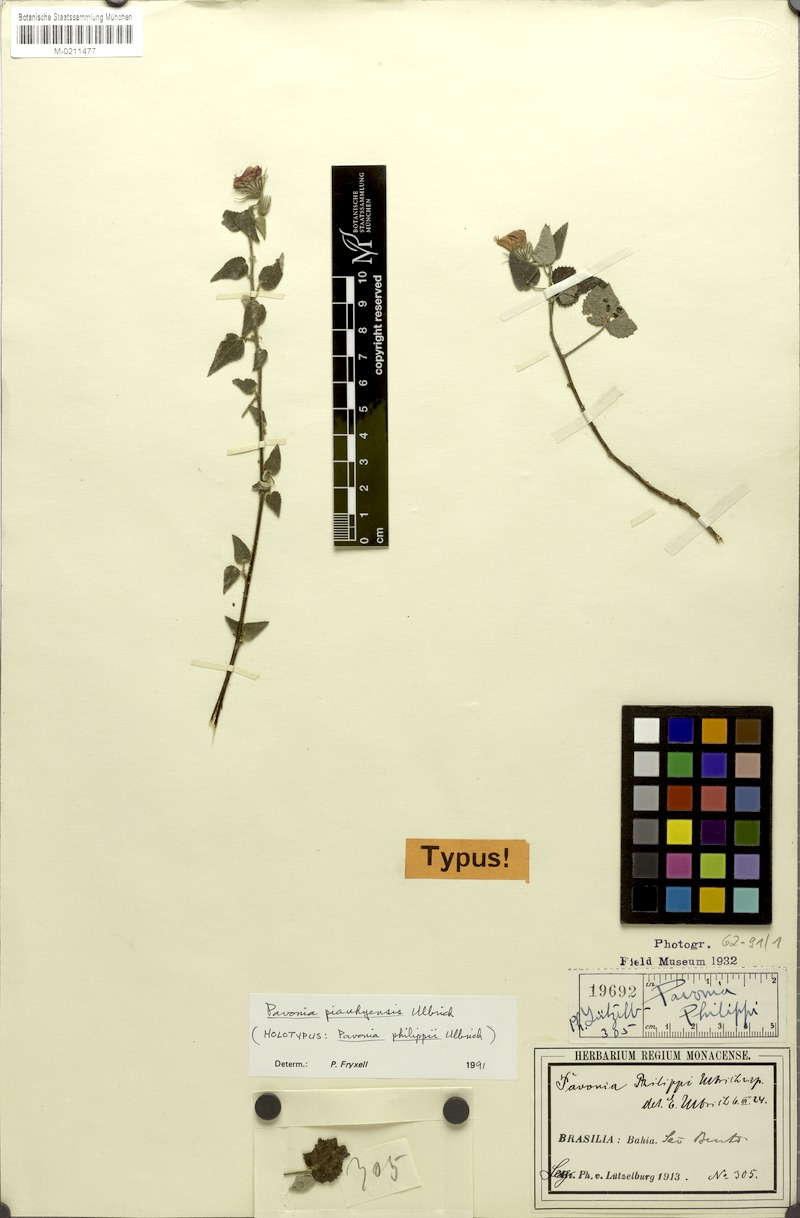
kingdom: Plantae
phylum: Tracheophyta
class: Magnoliopsida
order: Malvales
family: Malvaceae
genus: Pavonia
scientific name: Pavonia piauhyensis
